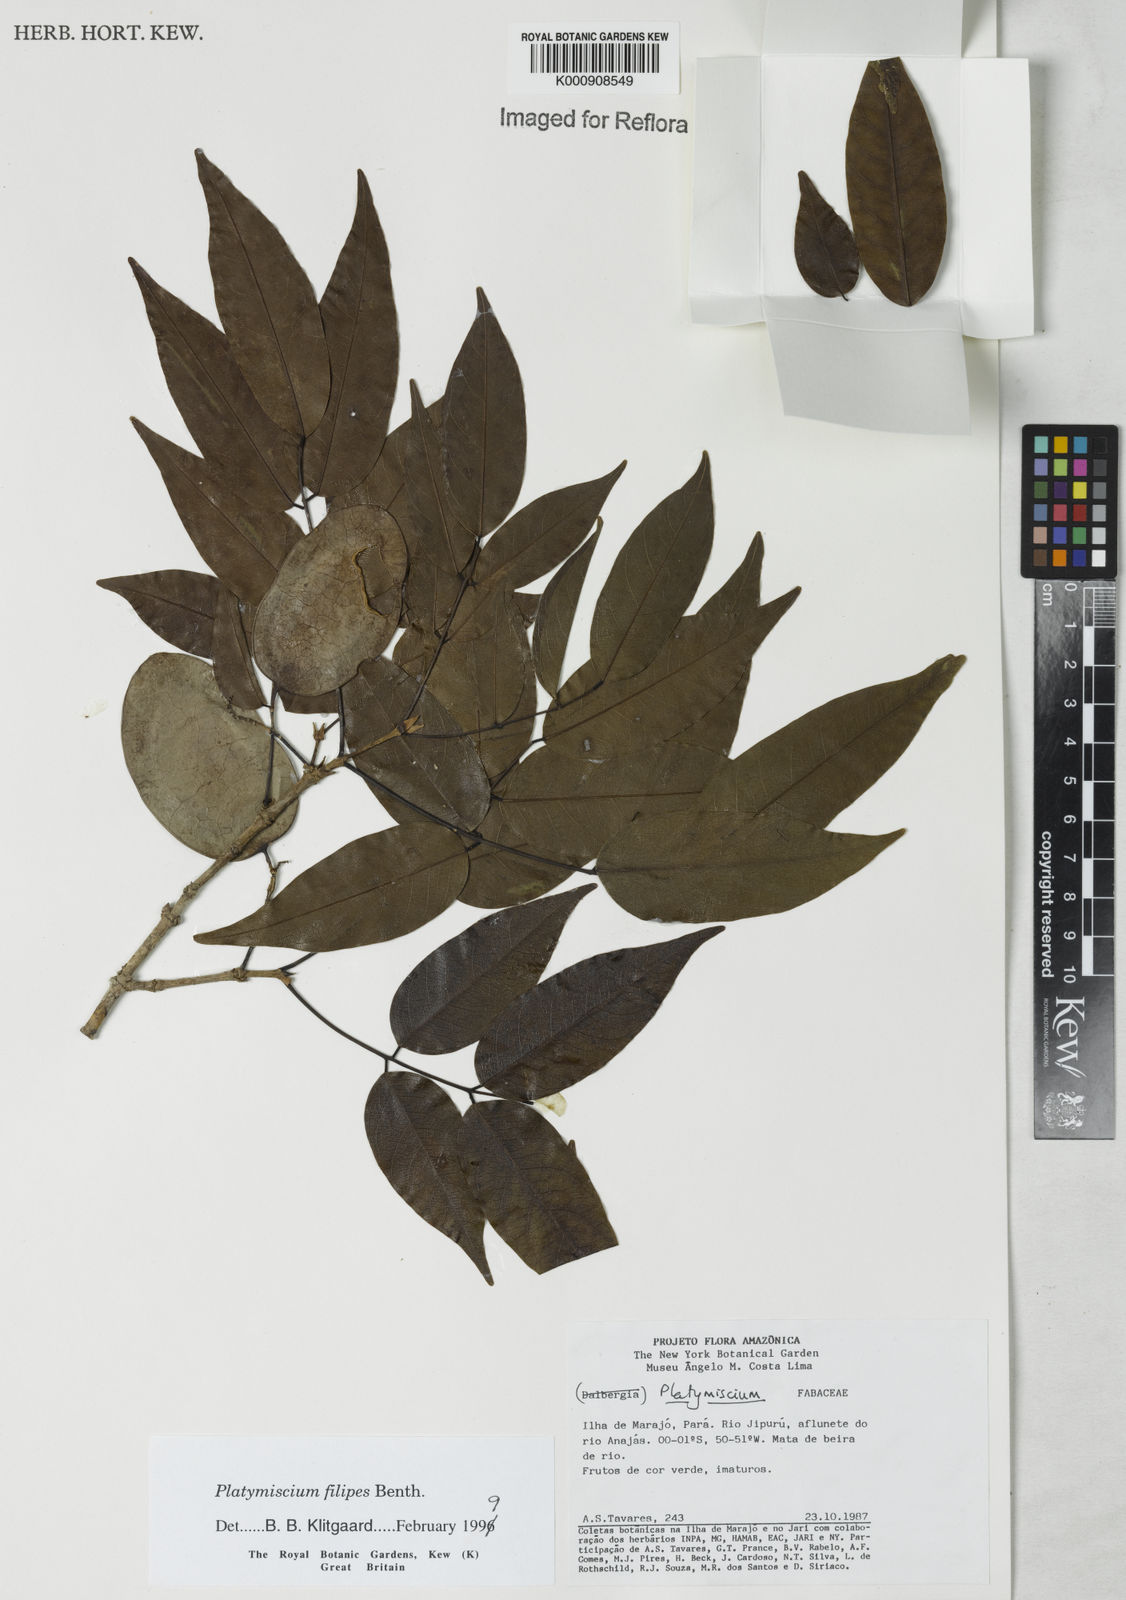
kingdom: Plantae
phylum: Tracheophyta
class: Magnoliopsida
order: Fabales
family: Fabaceae
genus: Platymiscium
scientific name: Platymiscium filipes
